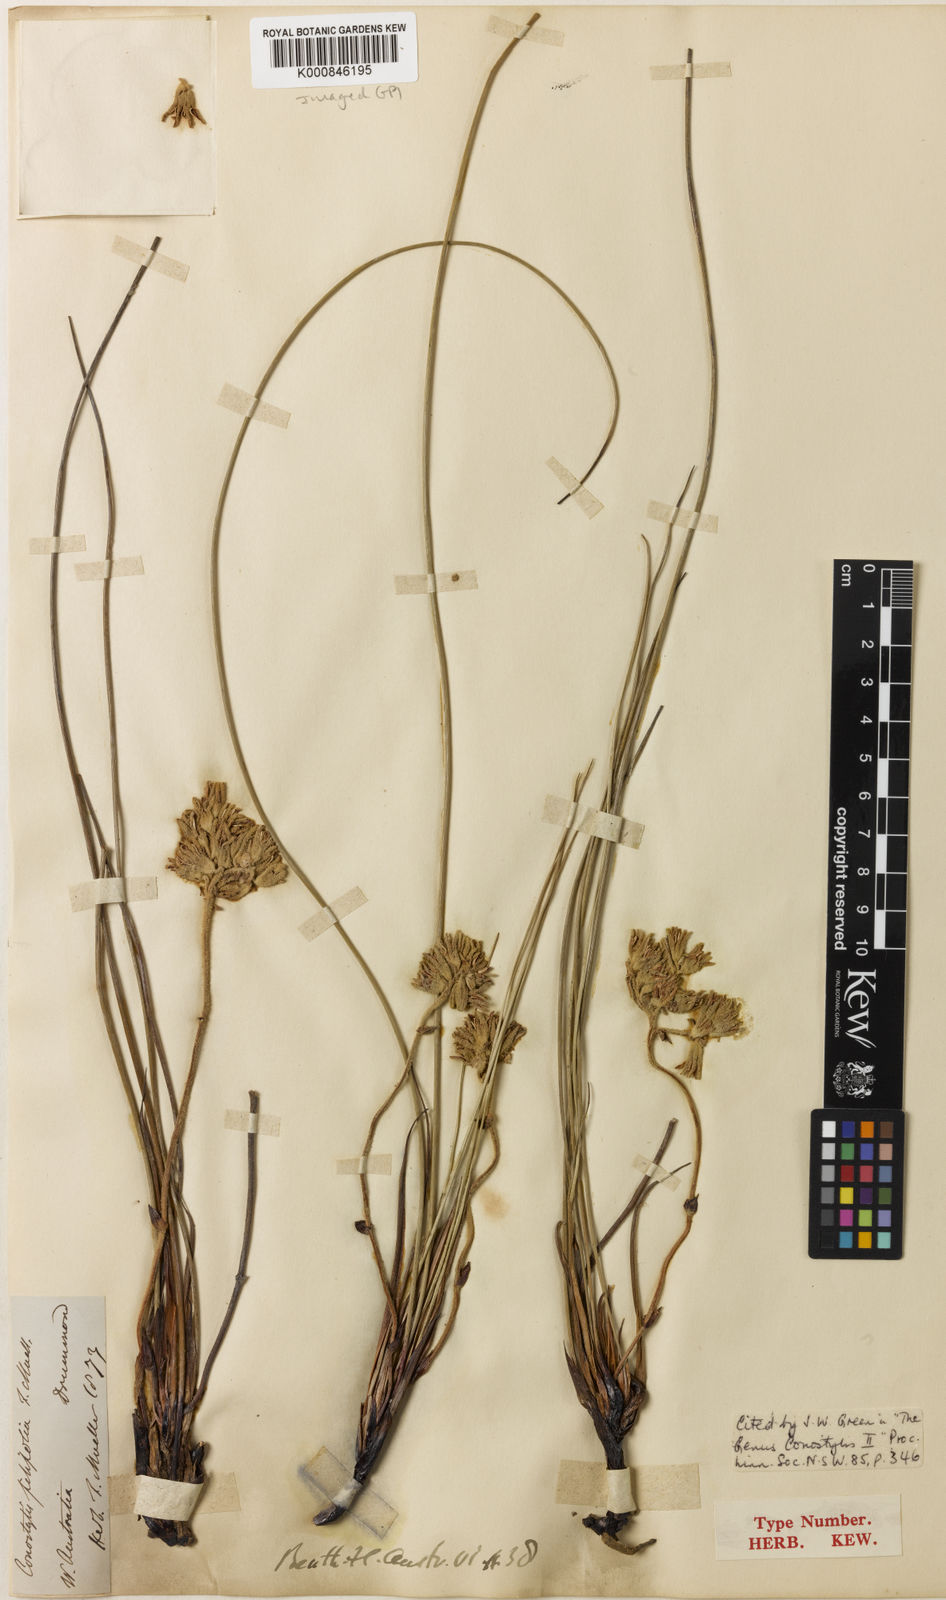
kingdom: Plantae
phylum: Tracheophyta
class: Liliopsida
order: Commelinales
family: Haemodoraceae
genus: Conostylis
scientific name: Conostylis festucacea
